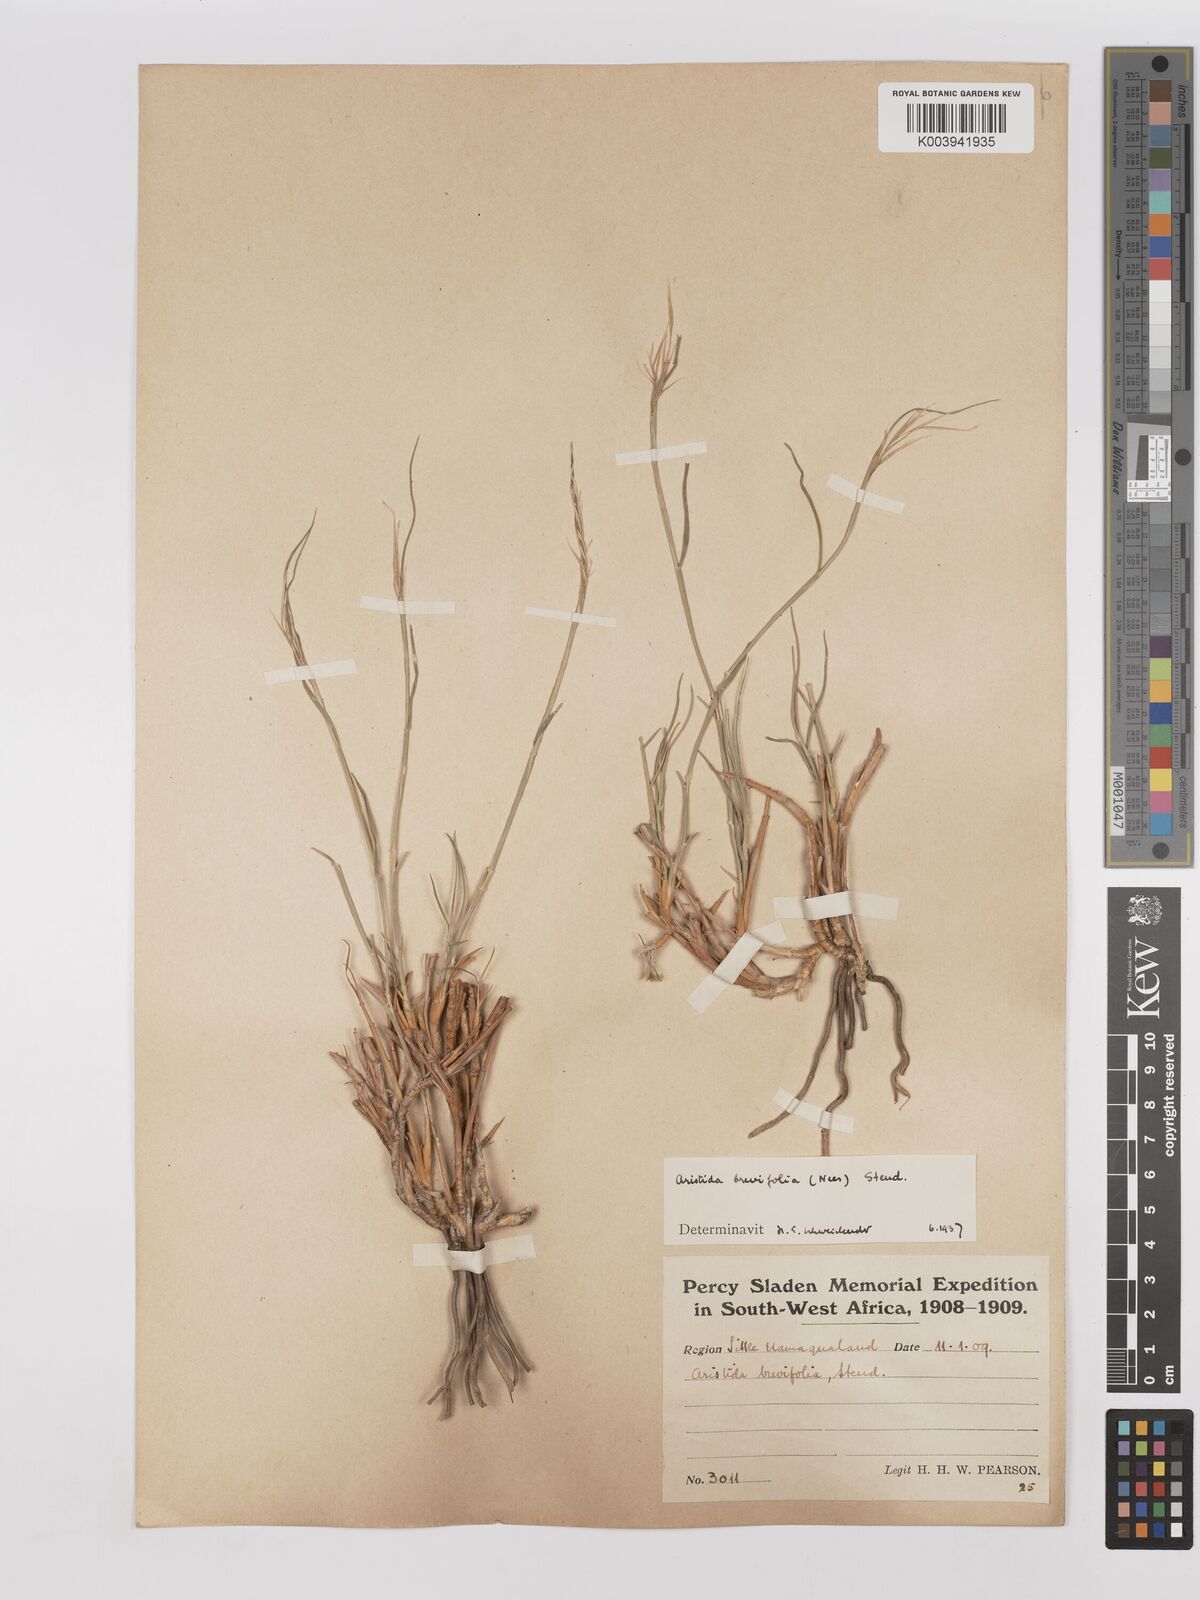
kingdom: Plantae
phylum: Tracheophyta
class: Liliopsida
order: Poales
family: Poaceae
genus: Stipagrostis
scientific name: Stipagrostis brevifolia
